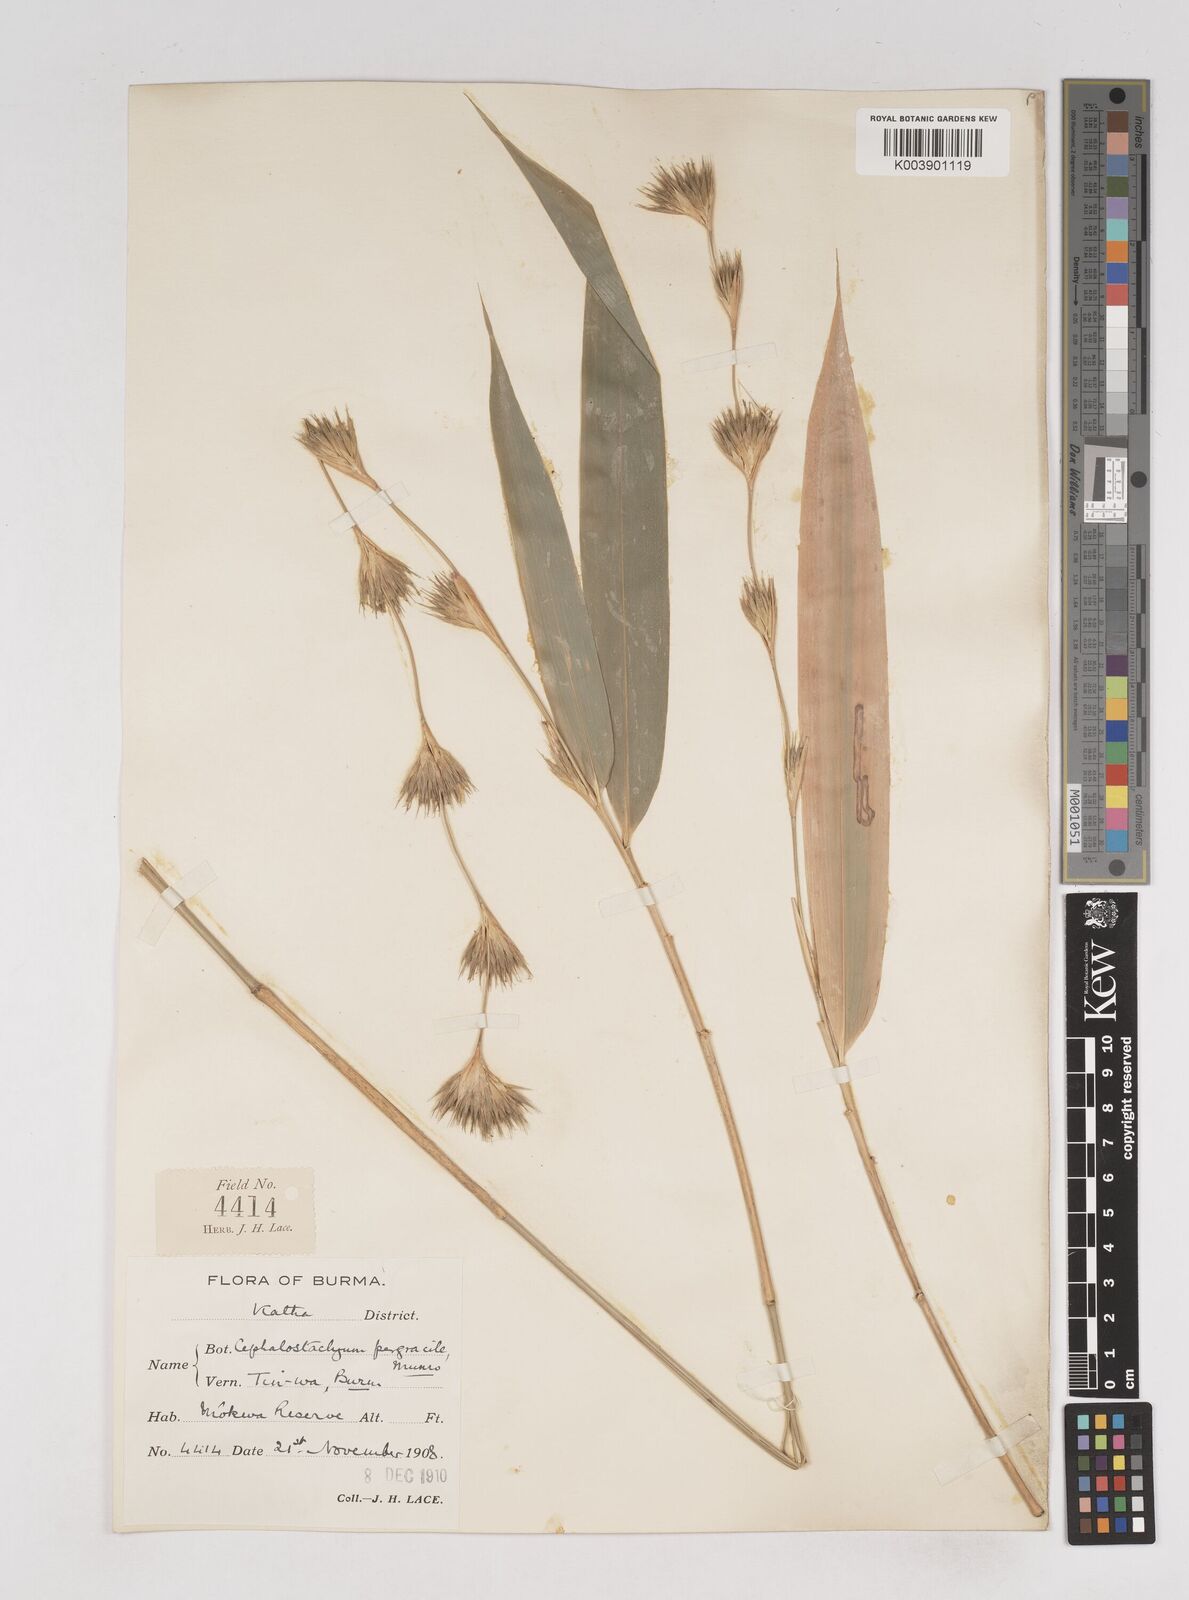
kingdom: Plantae
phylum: Tracheophyta
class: Liliopsida
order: Poales
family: Poaceae
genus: Schizostachyum
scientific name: Schizostachyum pergracile
